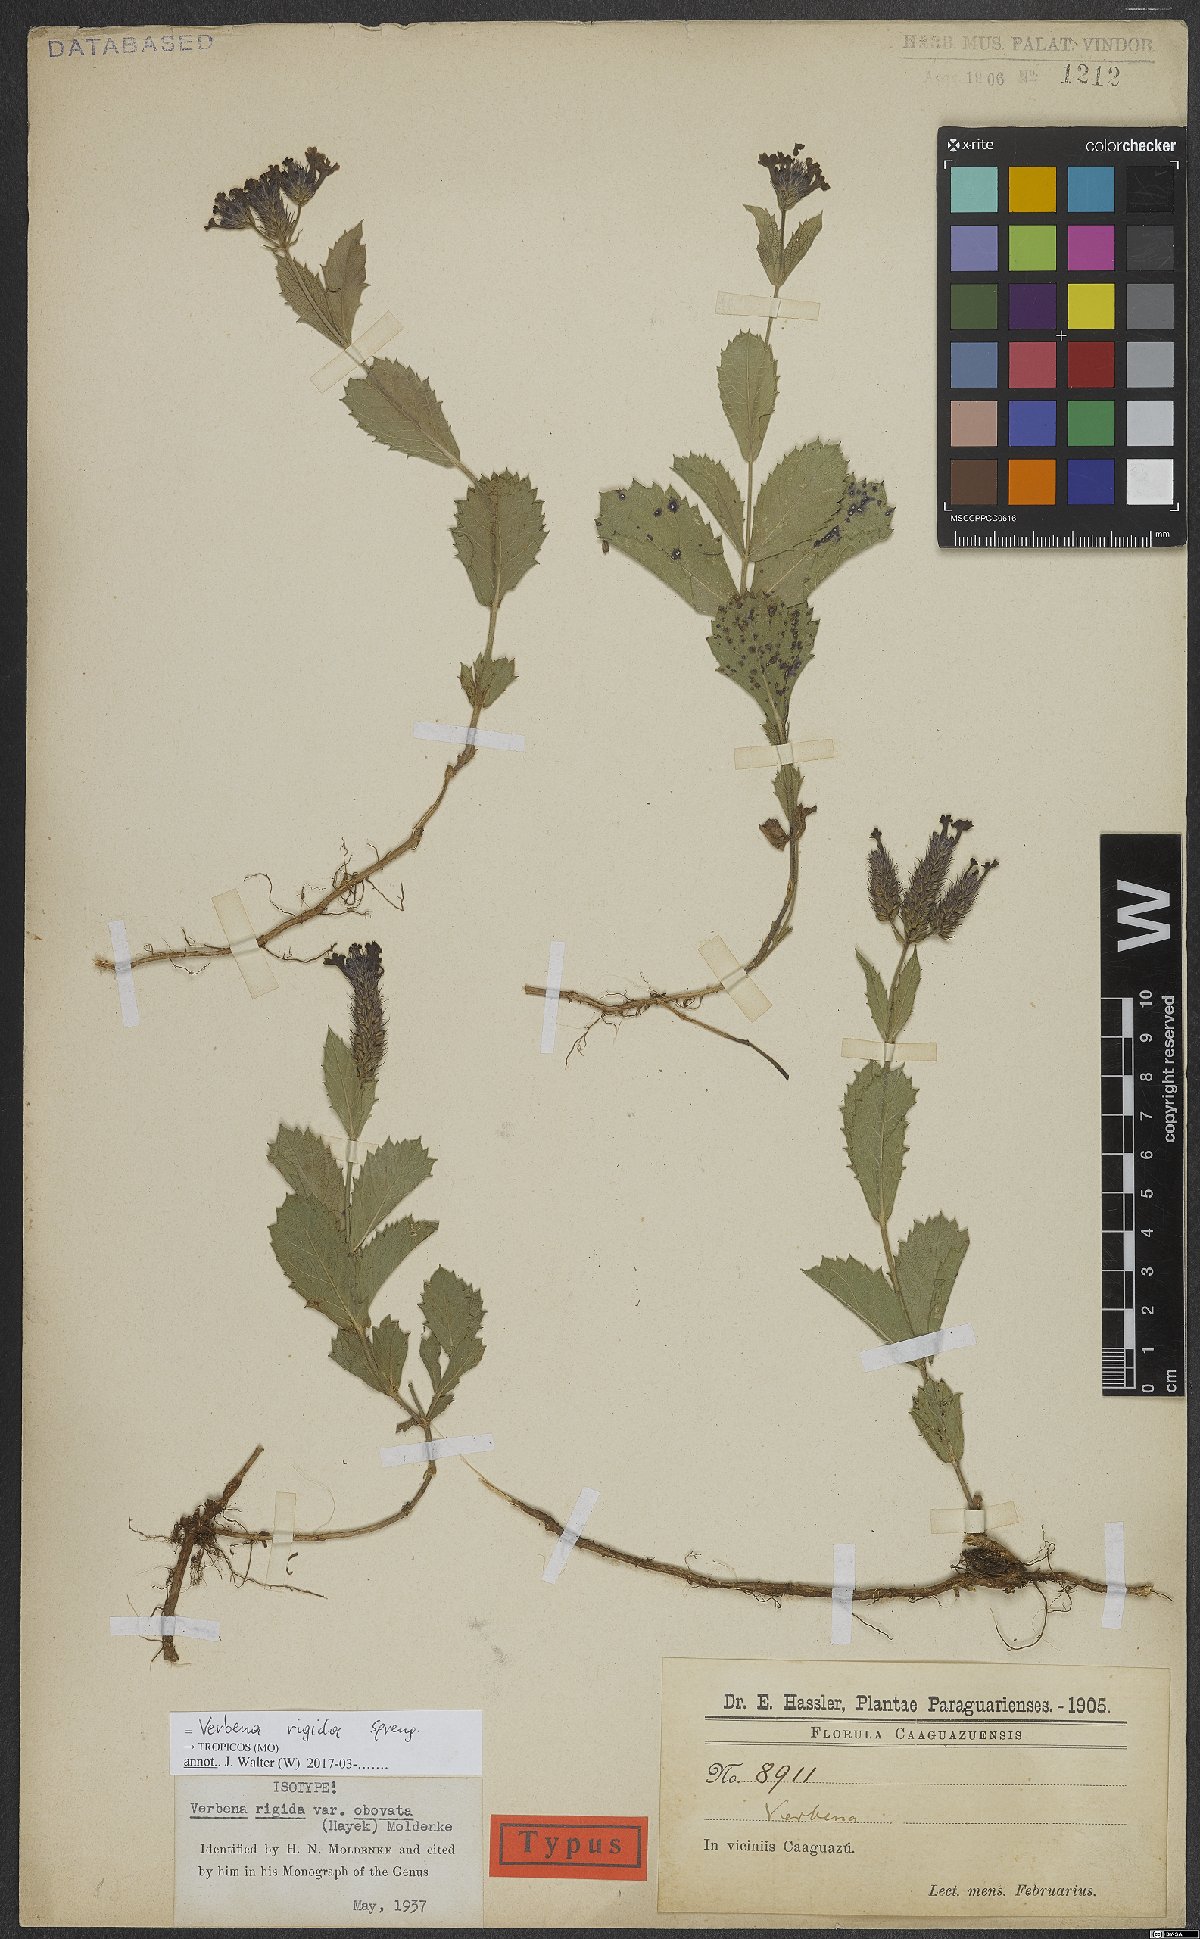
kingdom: Plantae
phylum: Tracheophyta
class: Magnoliopsida
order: Lamiales
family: Verbenaceae
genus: Verbena
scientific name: Verbena rigida
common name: Slender vervain
